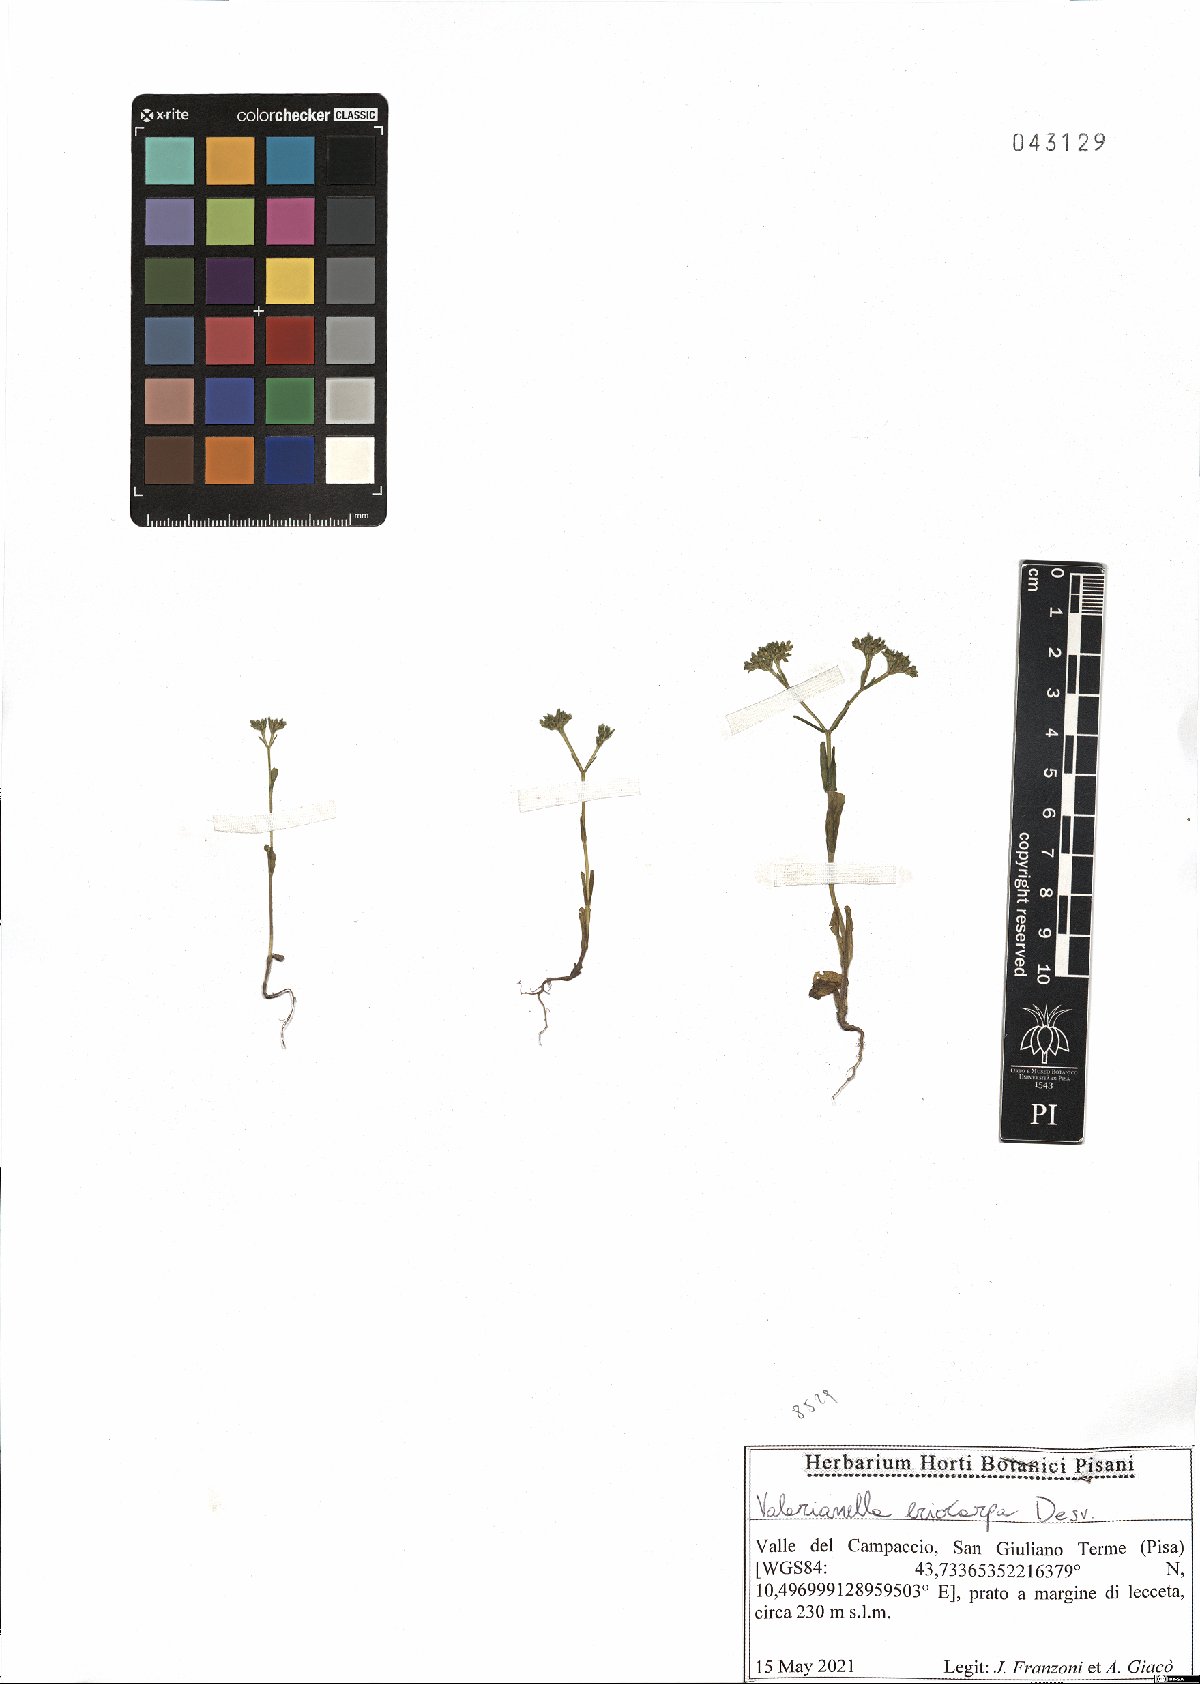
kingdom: Plantae
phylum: Tracheophyta
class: Magnoliopsida
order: Dipsacales
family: Caprifoliaceae
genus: Valerianella
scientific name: Valerianella eriocarpa
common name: Hairy-fruited cornsalad
